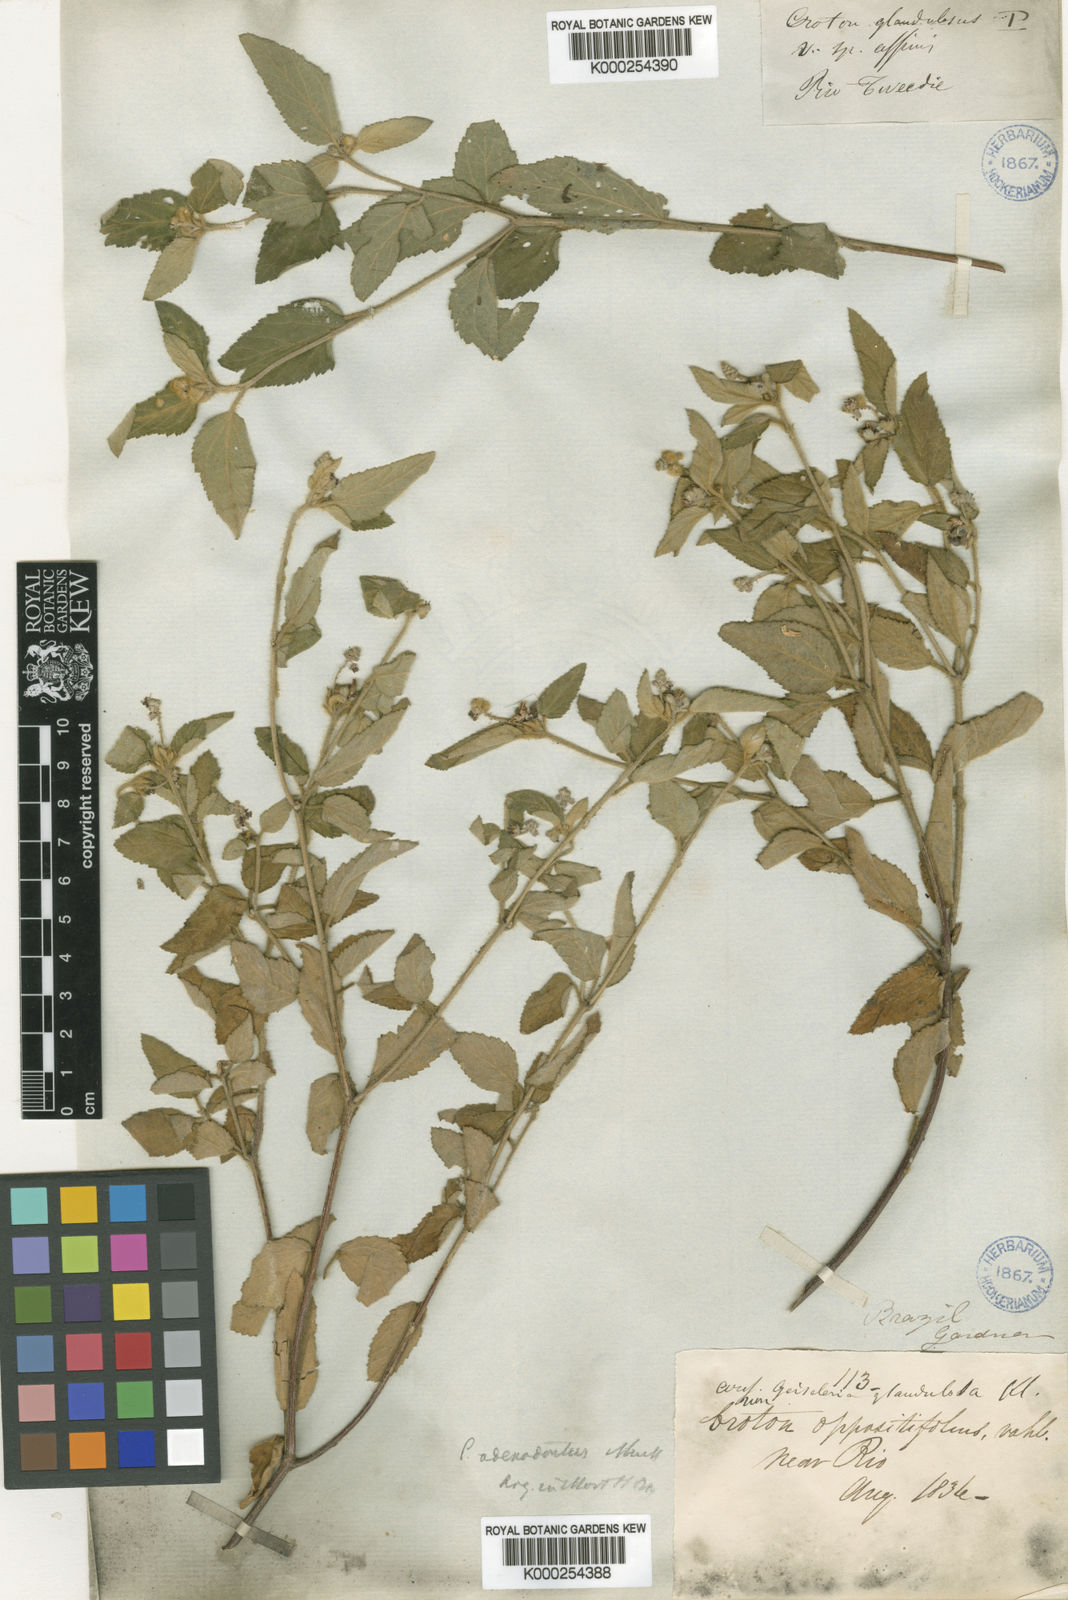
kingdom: Plantae
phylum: Tracheophyta
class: Magnoliopsida
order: Malpighiales
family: Euphorbiaceae
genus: Croton
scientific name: Croton
